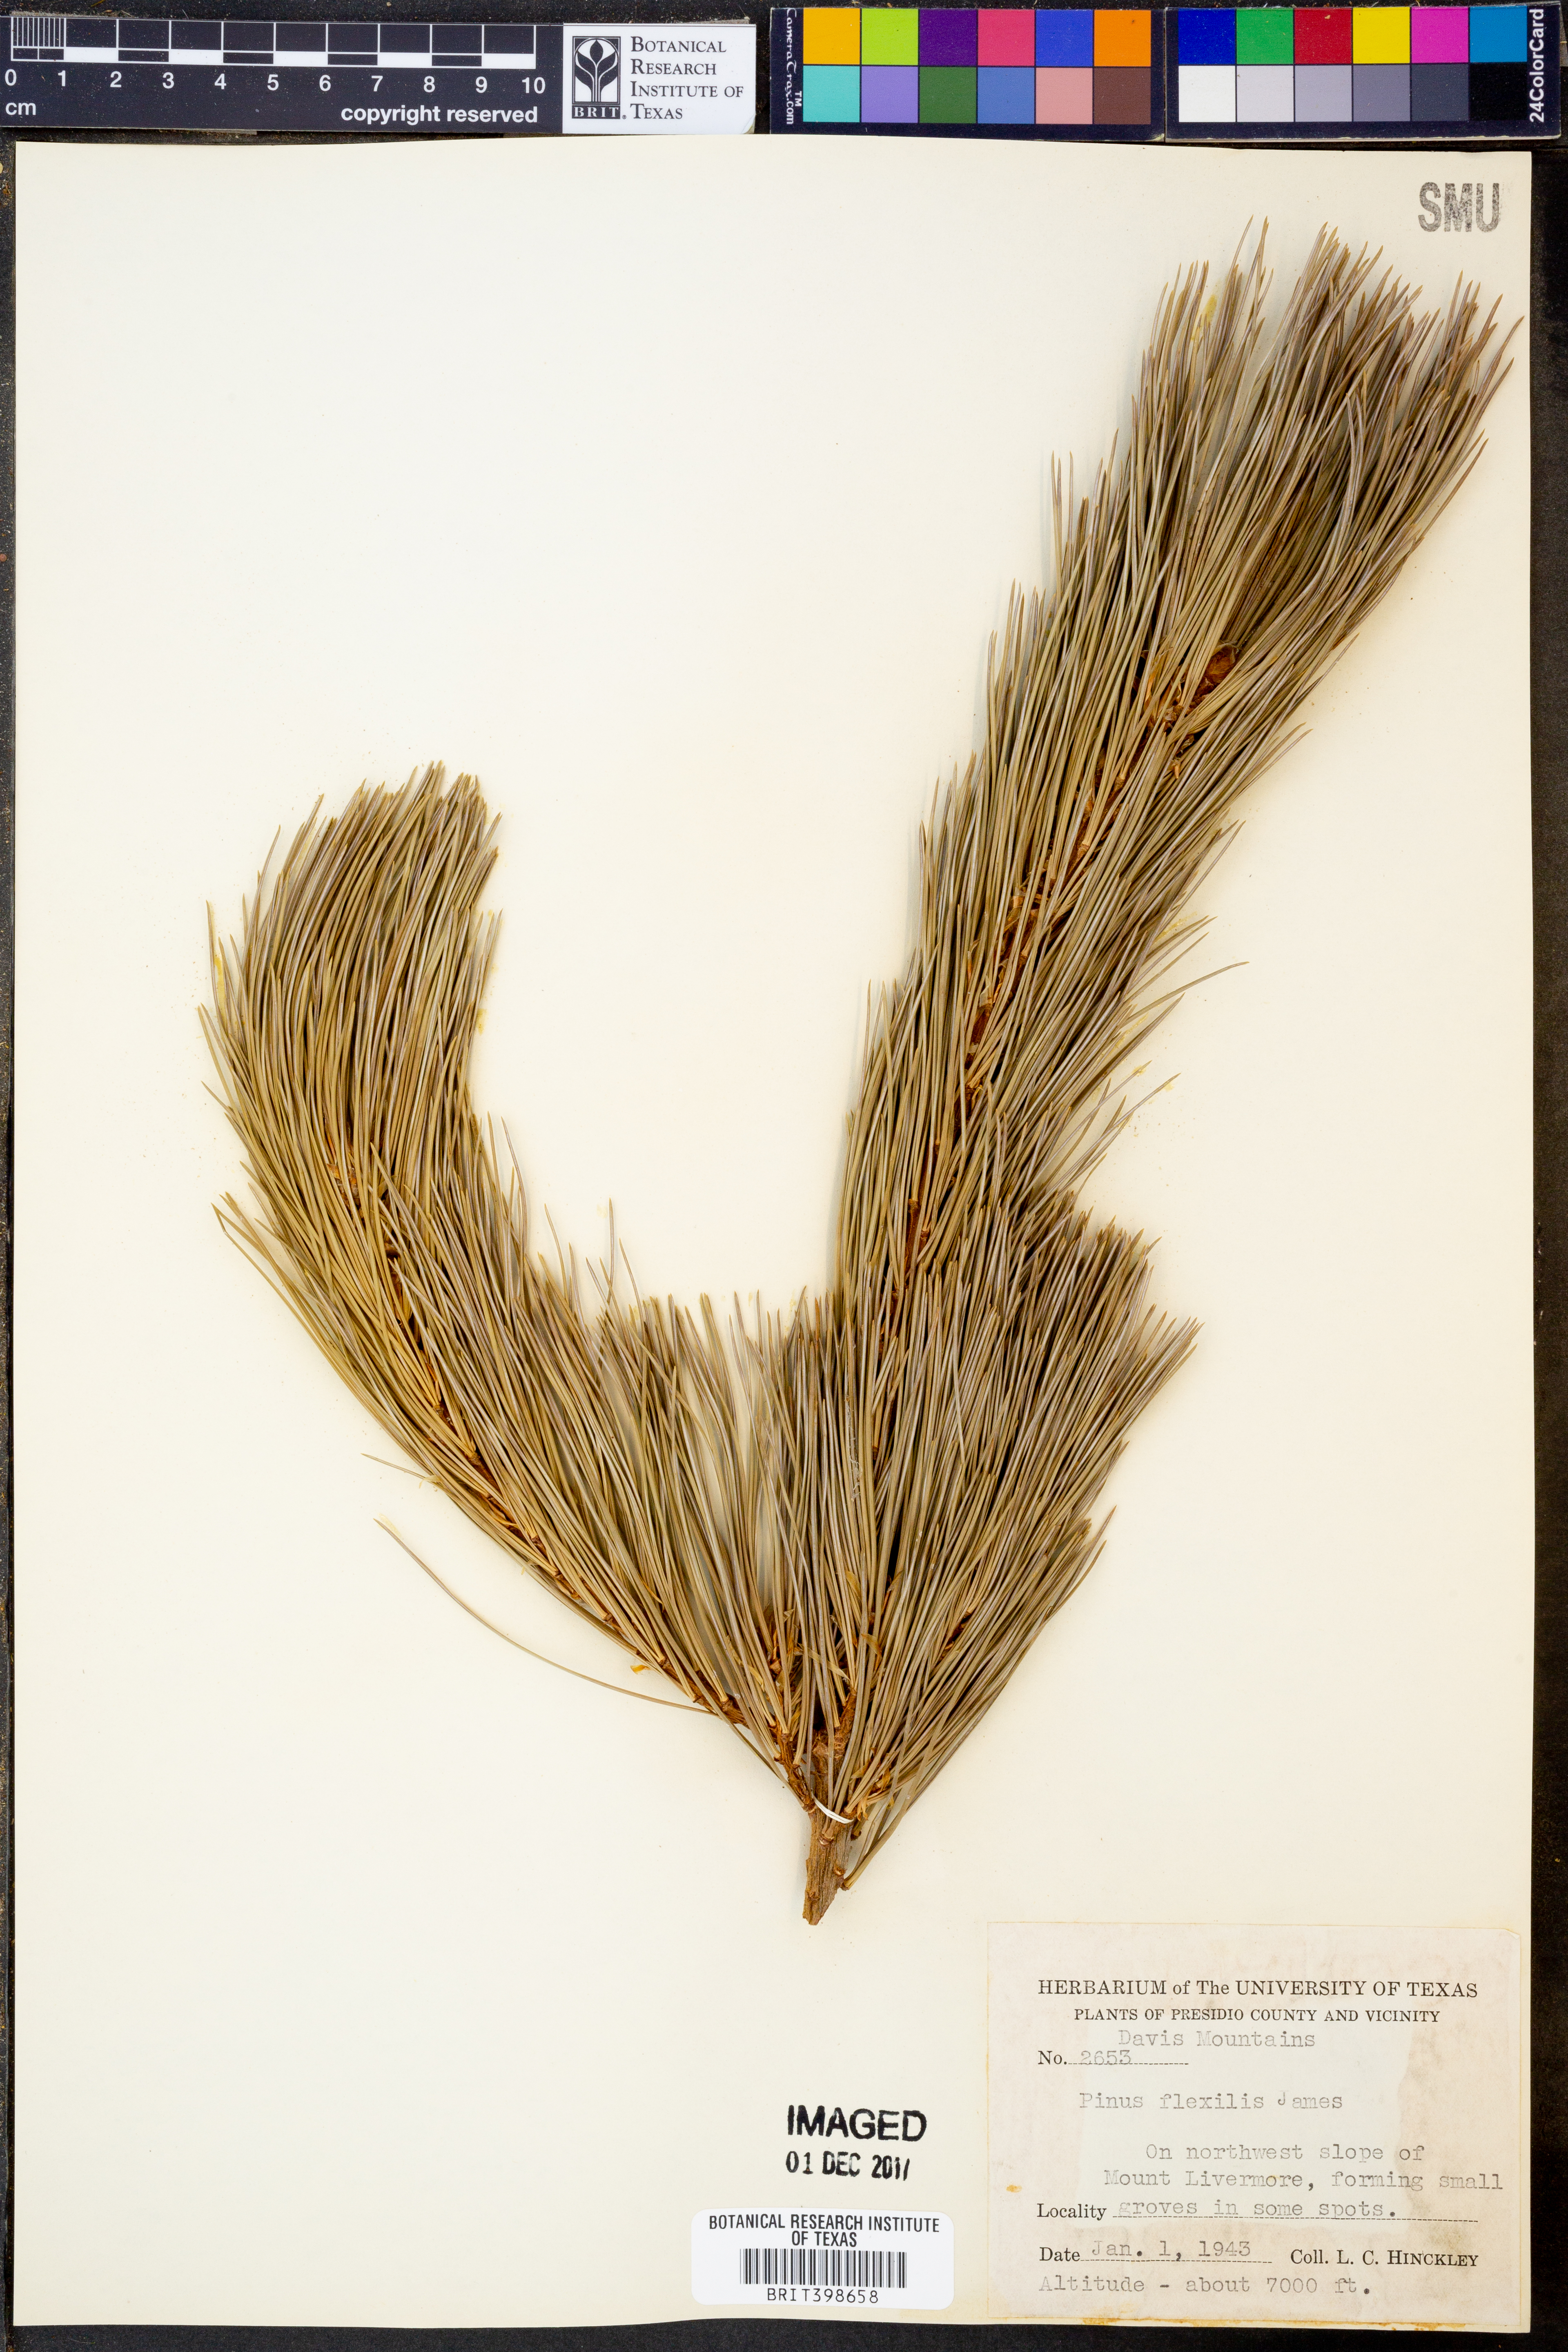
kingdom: Plantae
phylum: Tracheophyta
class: Pinopsida
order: Pinales
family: Pinaceae
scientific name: Pinaceae
